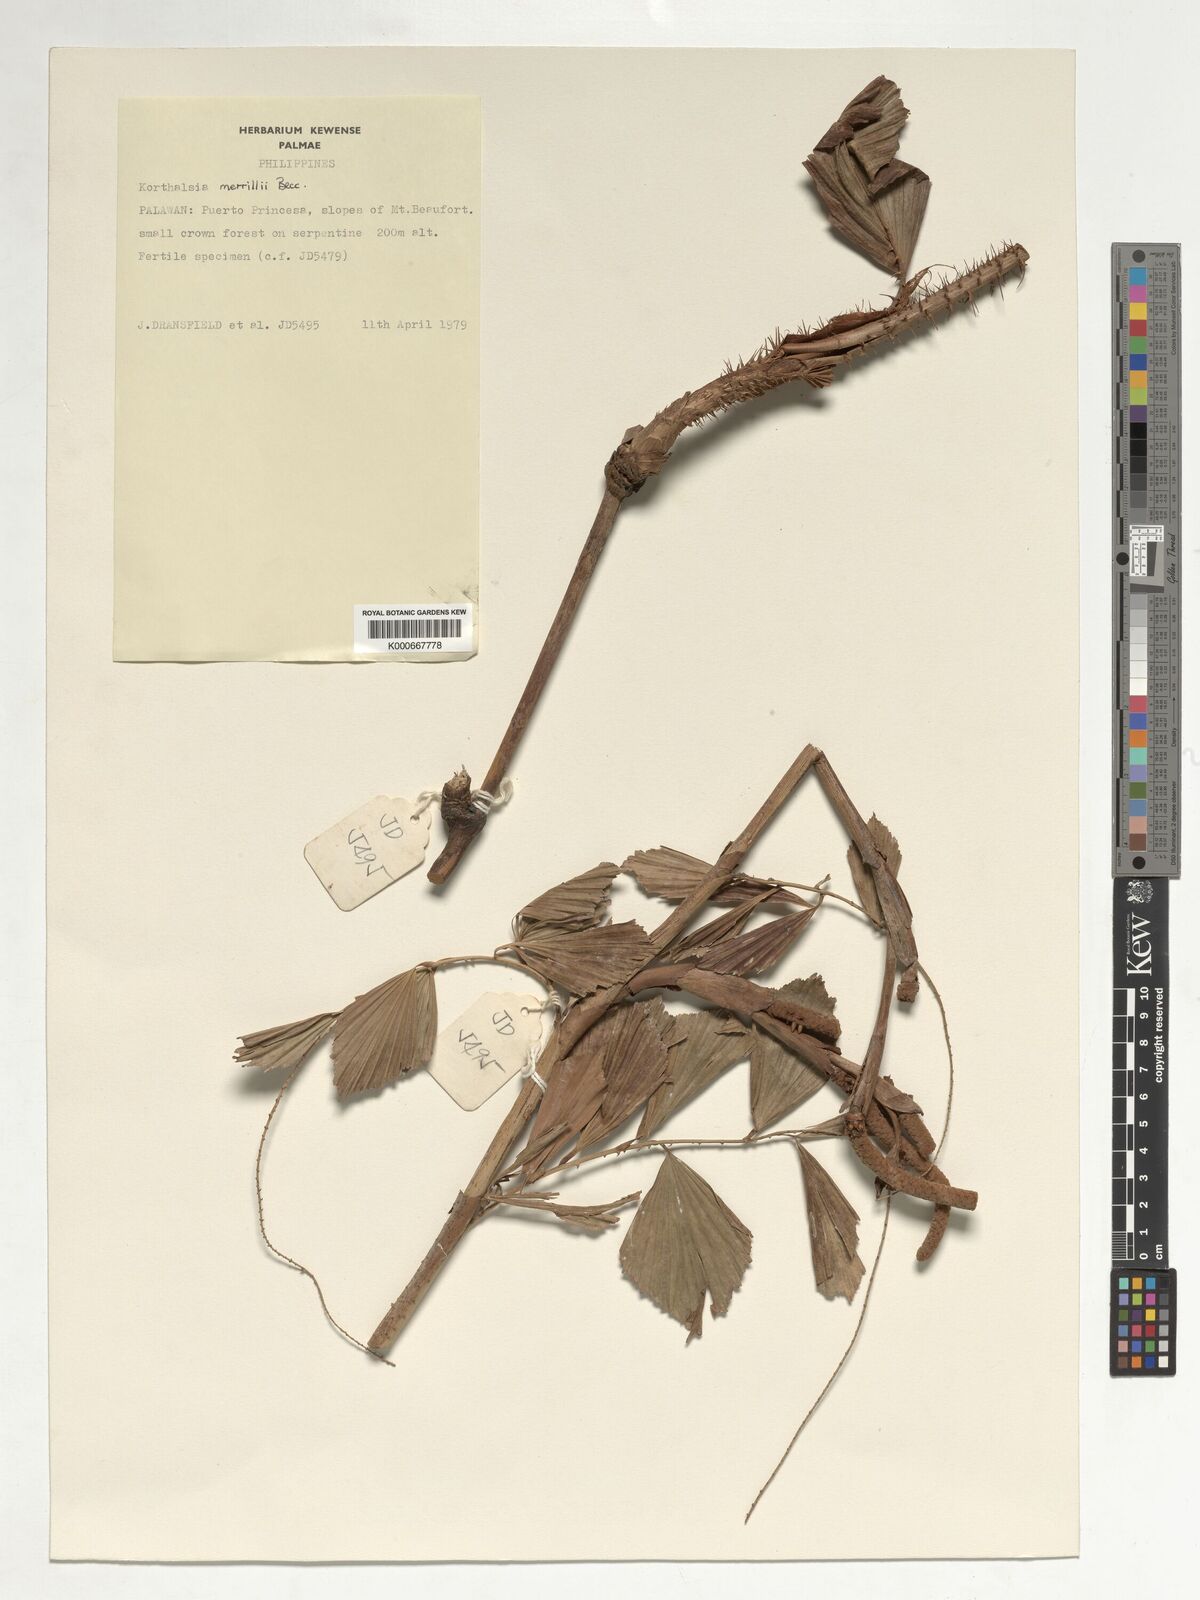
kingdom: Plantae
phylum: Tracheophyta
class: Liliopsida
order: Arecales
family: Arecaceae
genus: Korthalsia
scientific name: Korthalsia merrillii
